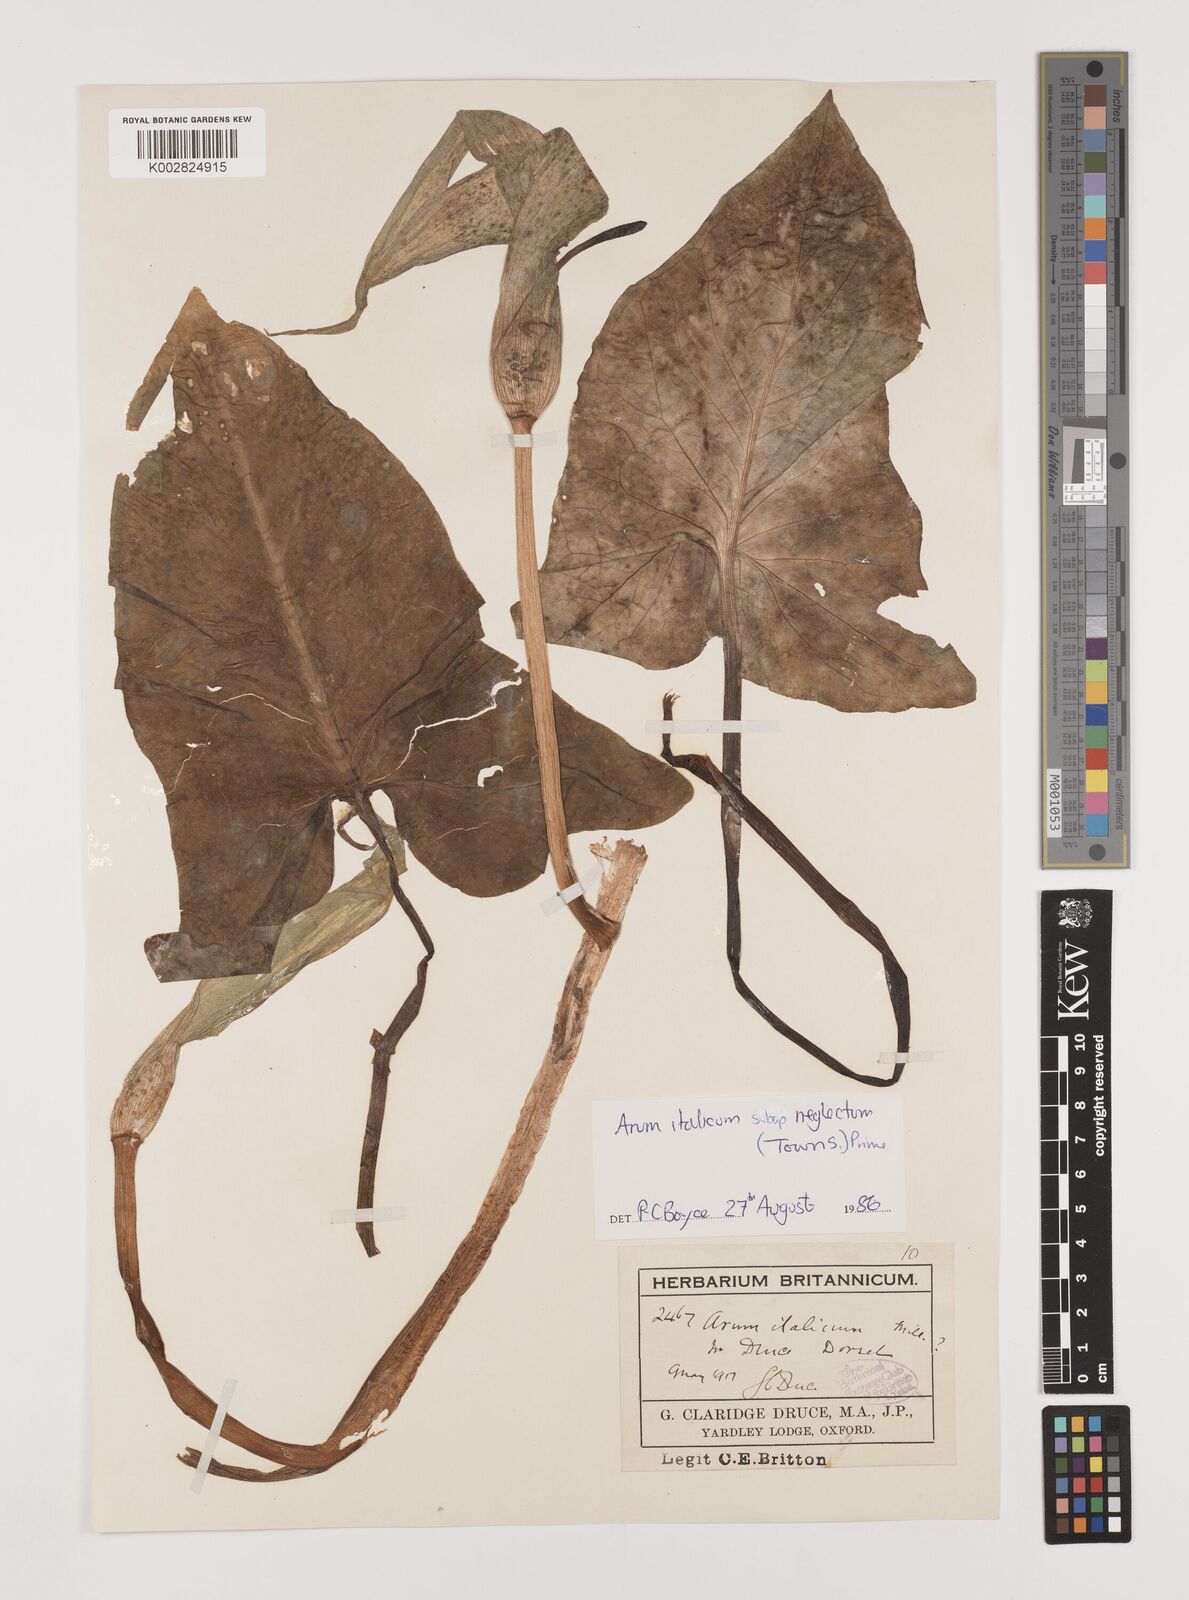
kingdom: Plantae
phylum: Tracheophyta
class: Liliopsida
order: Alismatales
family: Araceae
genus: Arum
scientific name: Arum italicum
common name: Italian lords-and-ladies
